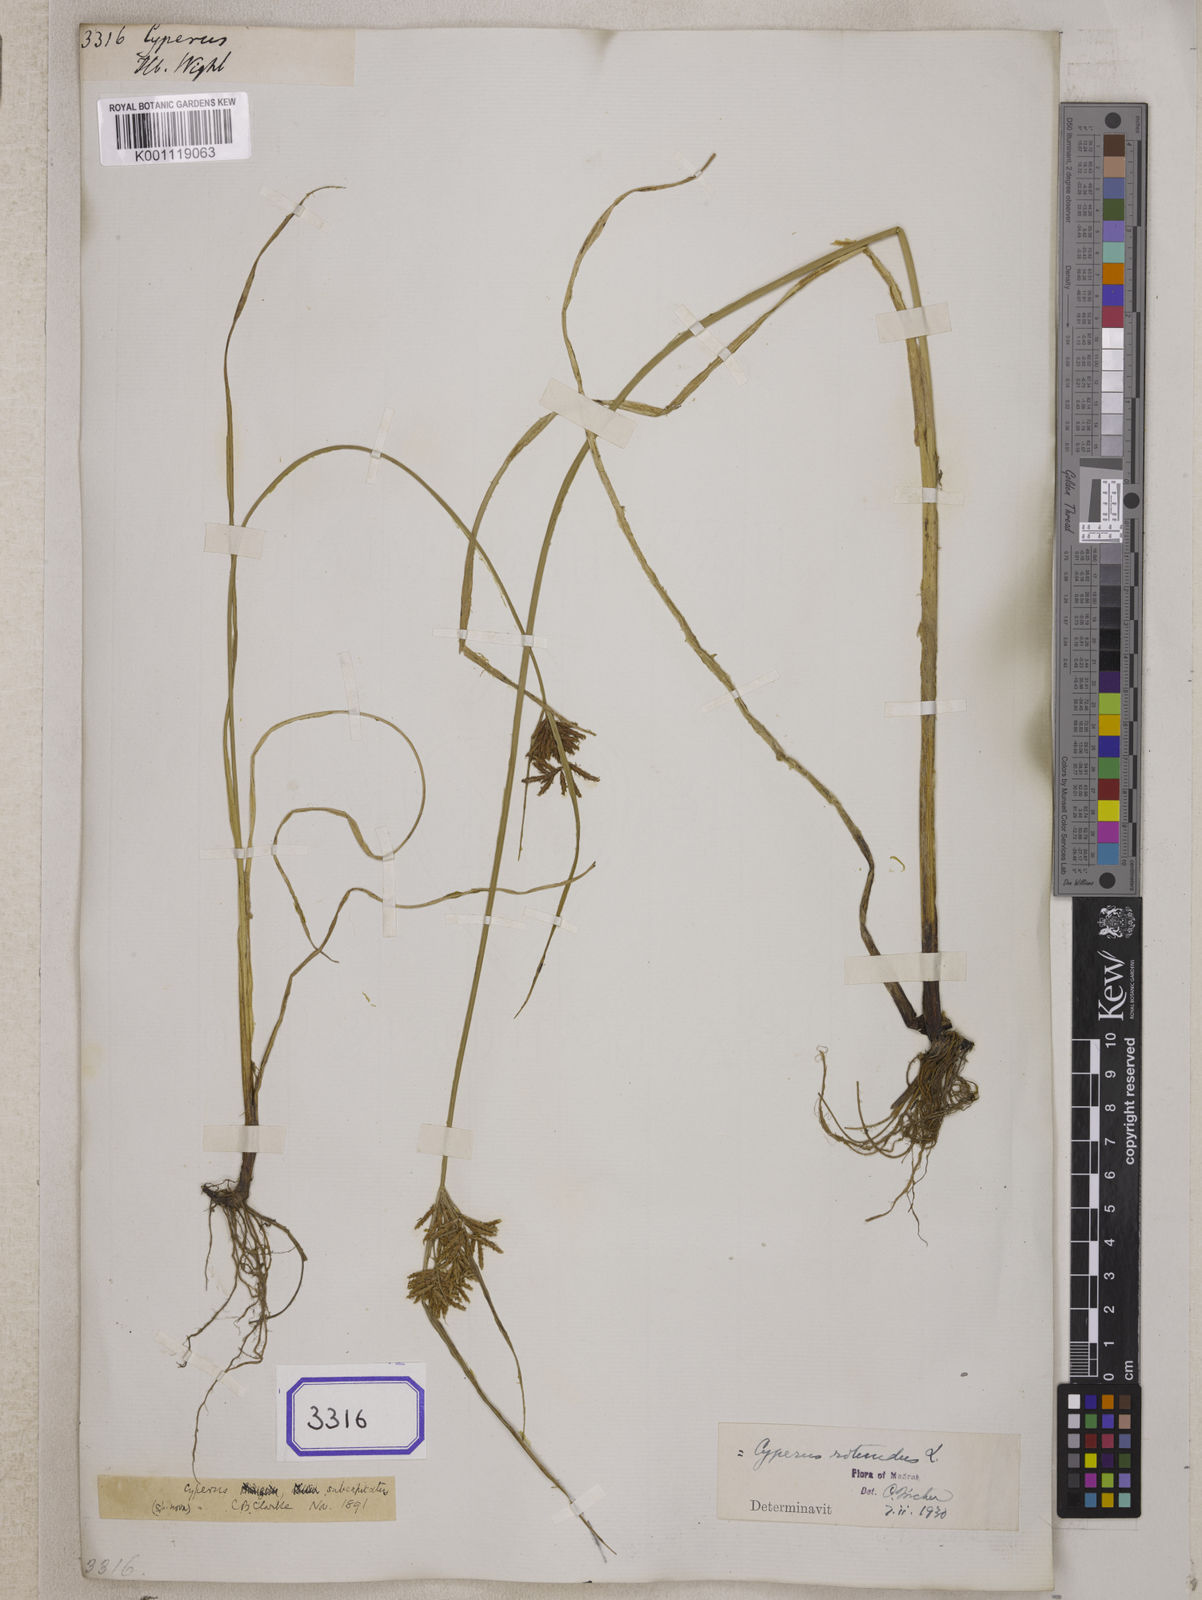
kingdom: Plantae
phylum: Tracheophyta
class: Liliopsida
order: Poales
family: Cyperaceae
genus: Cyperus
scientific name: Cyperus
